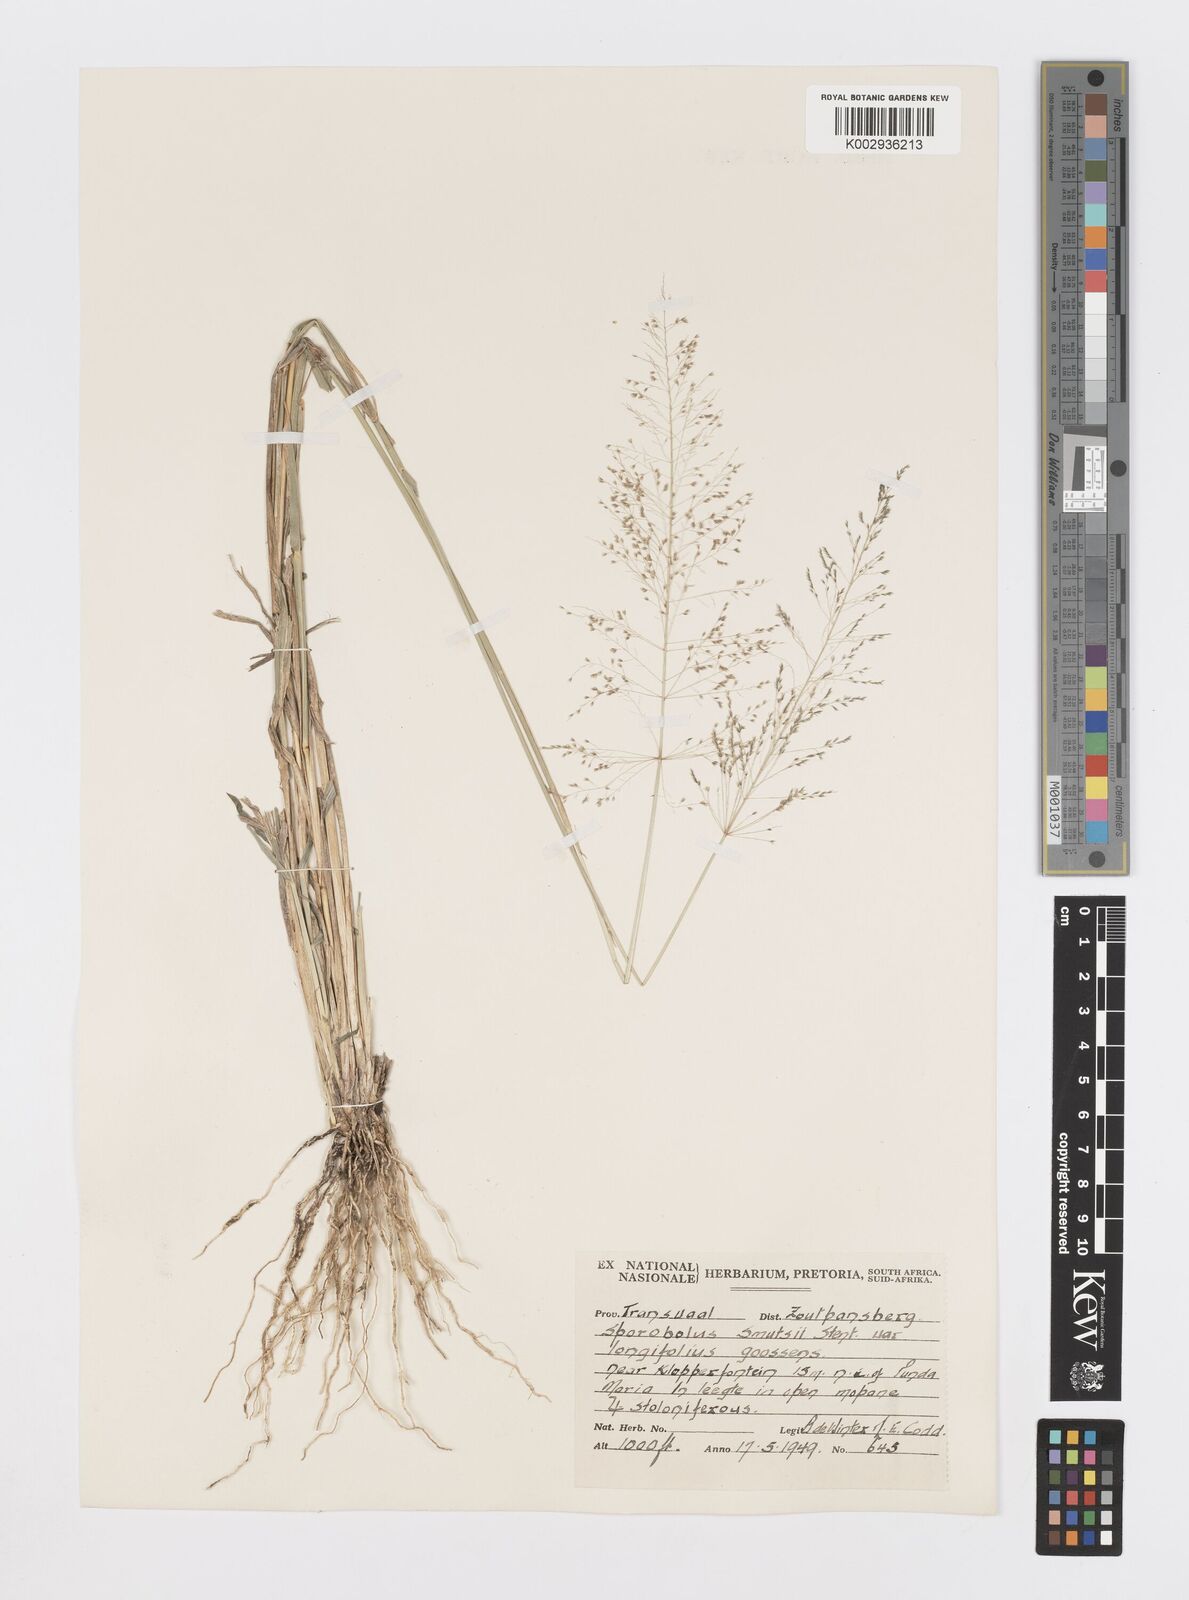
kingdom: Plantae
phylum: Tracheophyta
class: Liliopsida
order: Poales
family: Poaceae
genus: Sporobolus
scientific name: Sporobolus ioclados
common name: Pan dropseed
